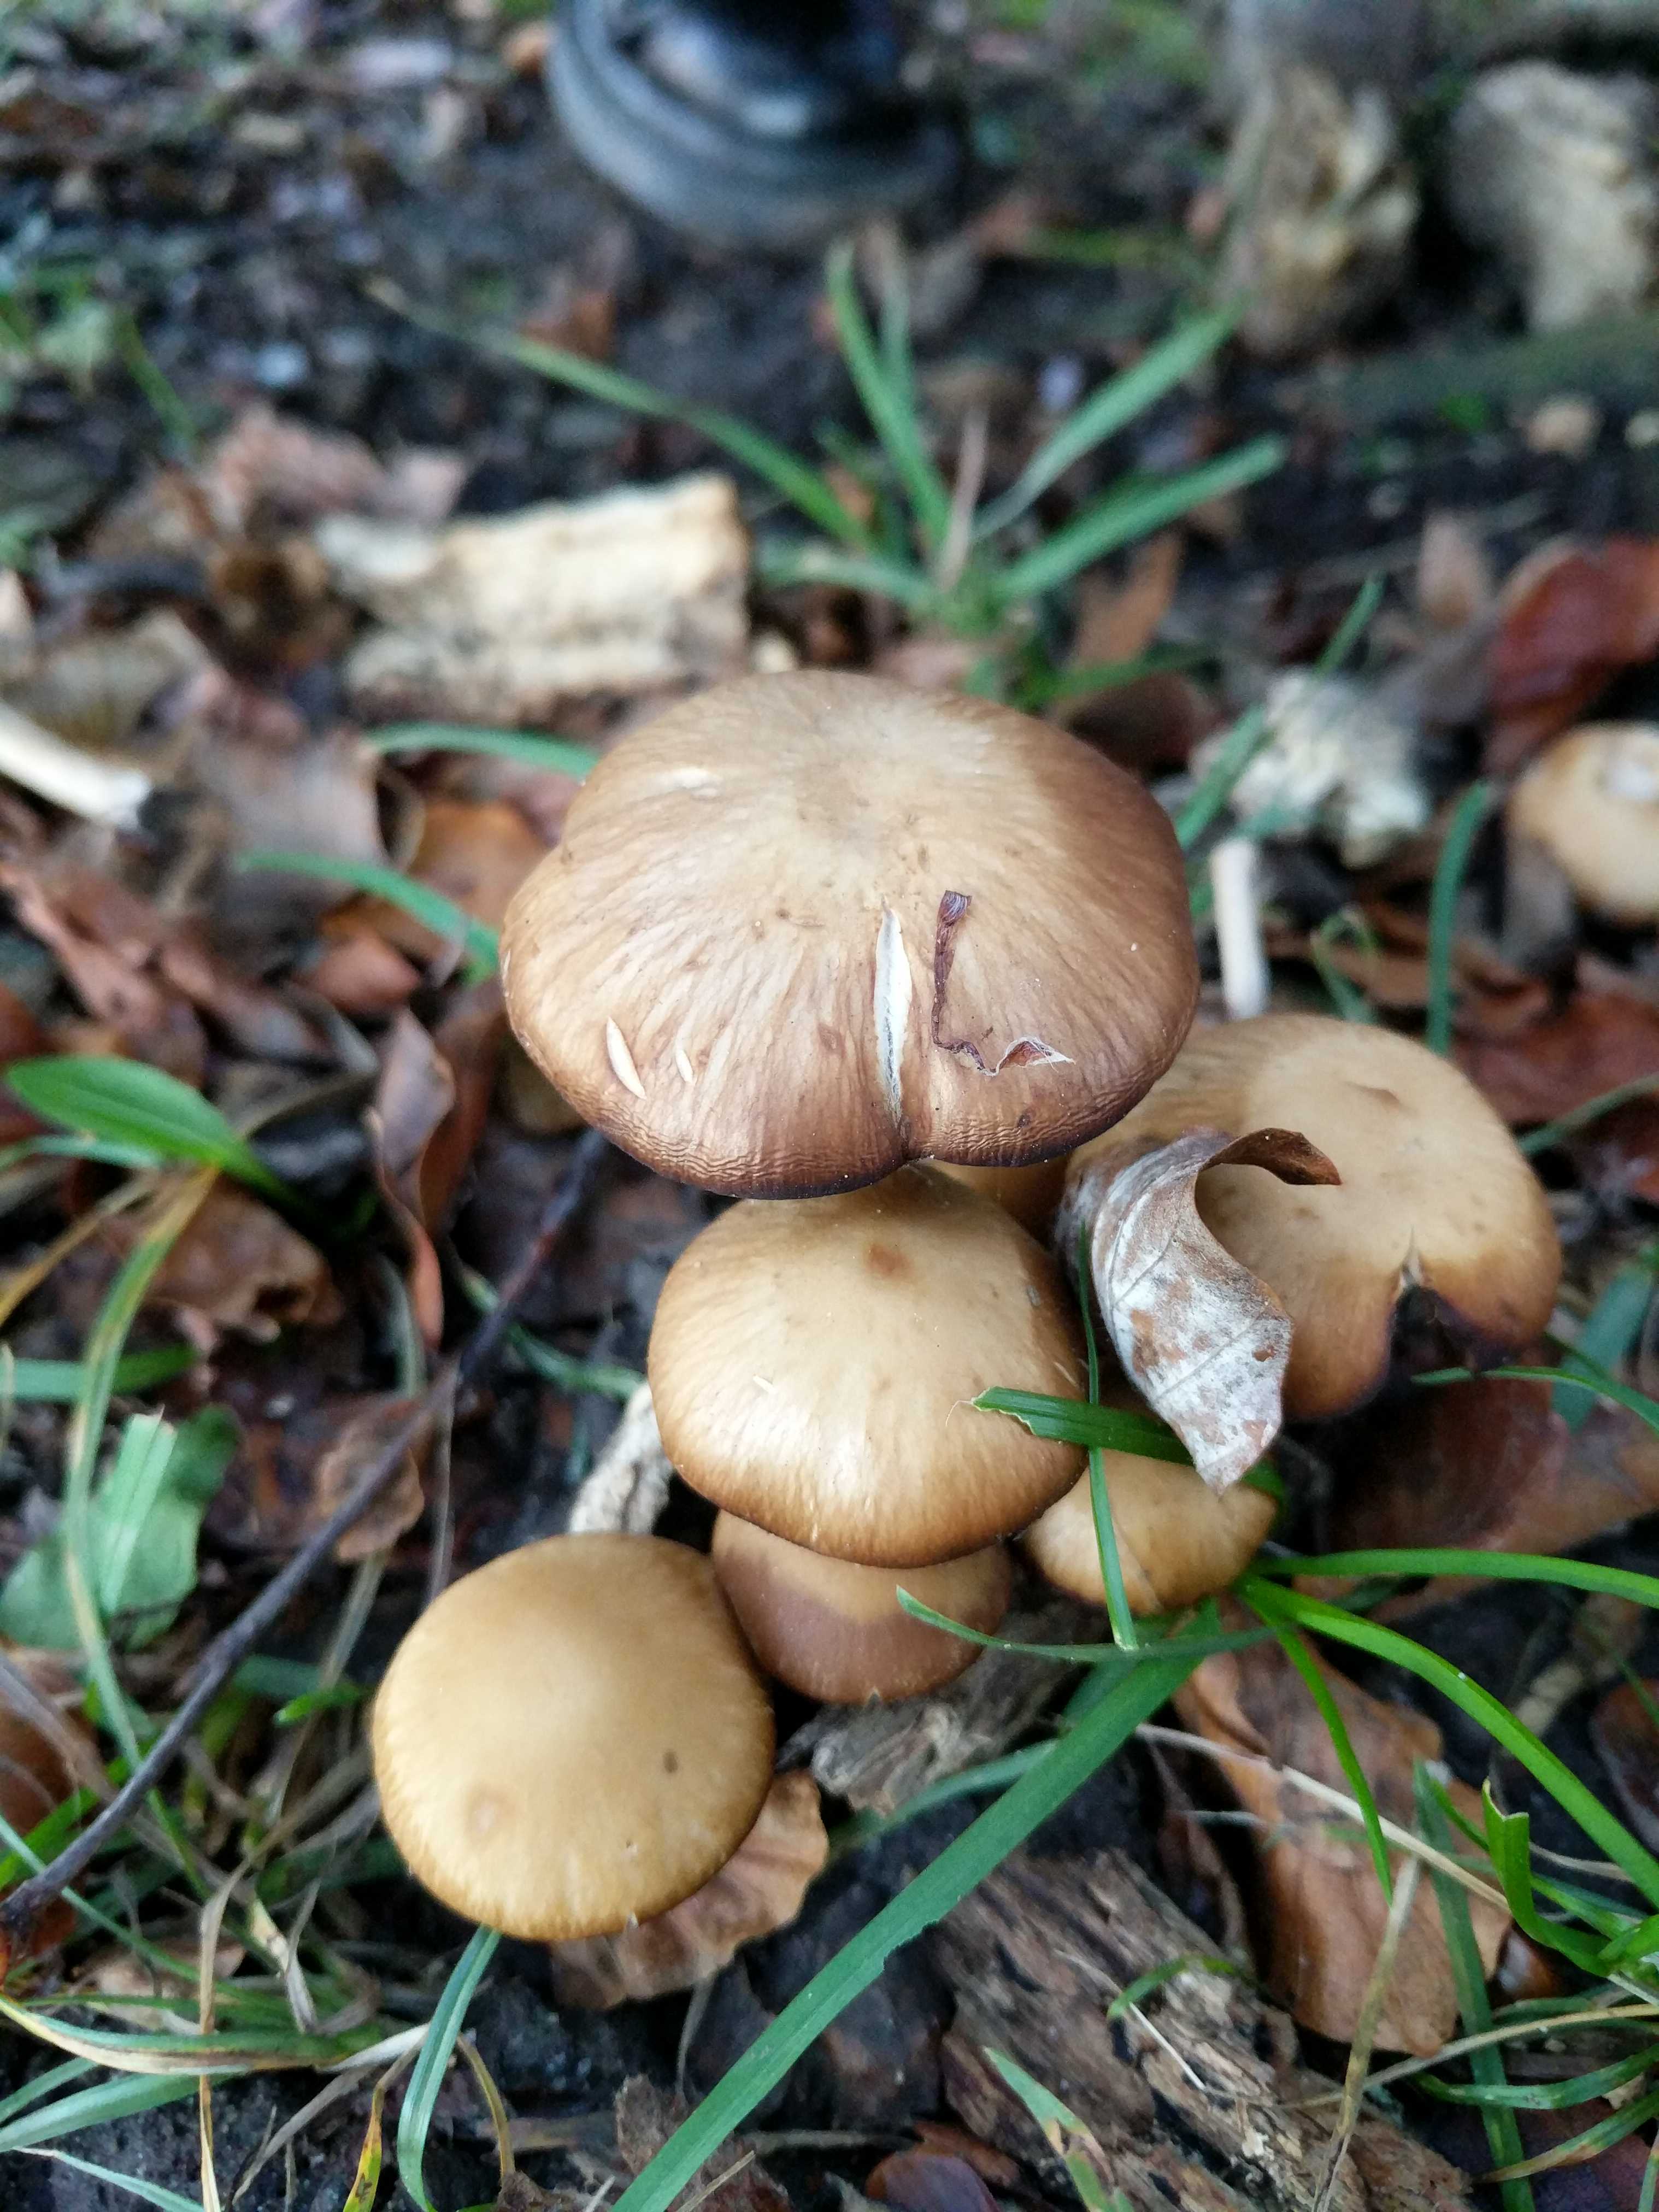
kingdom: Fungi
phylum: Basidiomycota
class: Agaricomycetes
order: Agaricales
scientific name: Agaricales
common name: champignonordenen
